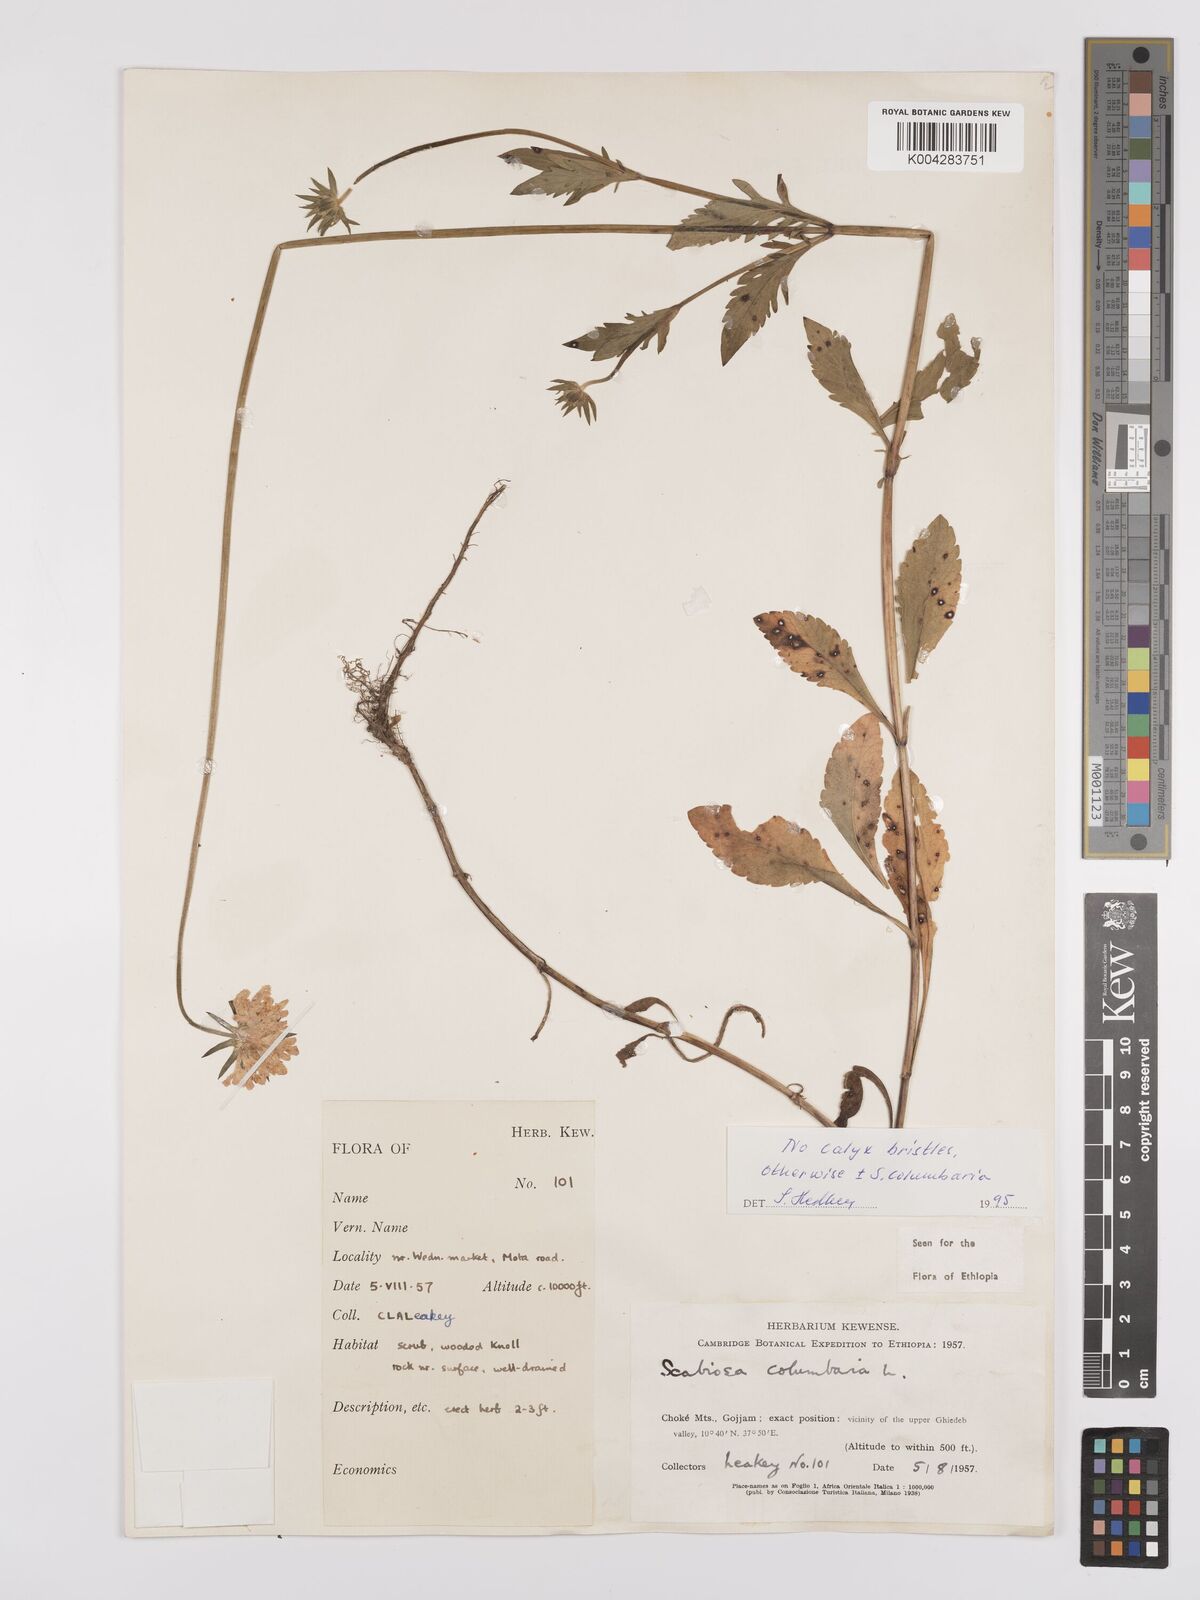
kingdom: Plantae
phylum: Tracheophyta
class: Magnoliopsida
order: Dipsacales
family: Caprifoliaceae
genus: Scabiosa
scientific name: Scabiosa columbaria
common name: Small scabious
